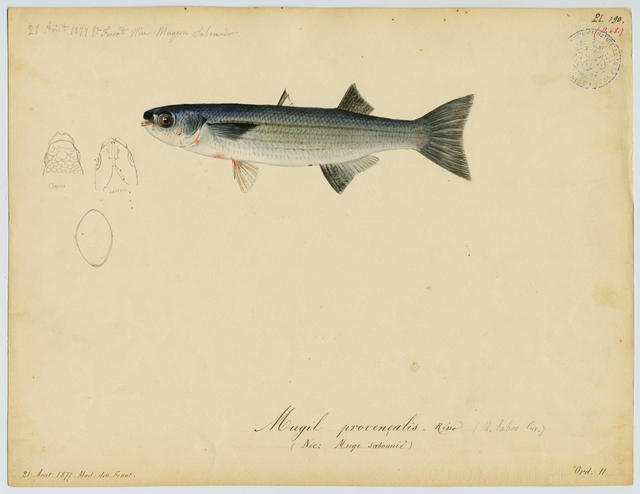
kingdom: Animalia
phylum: Chordata
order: Mugiliformes
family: Mugilidae
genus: Oedalechilus
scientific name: Oedalechilus labeo
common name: Boxlip mullet
